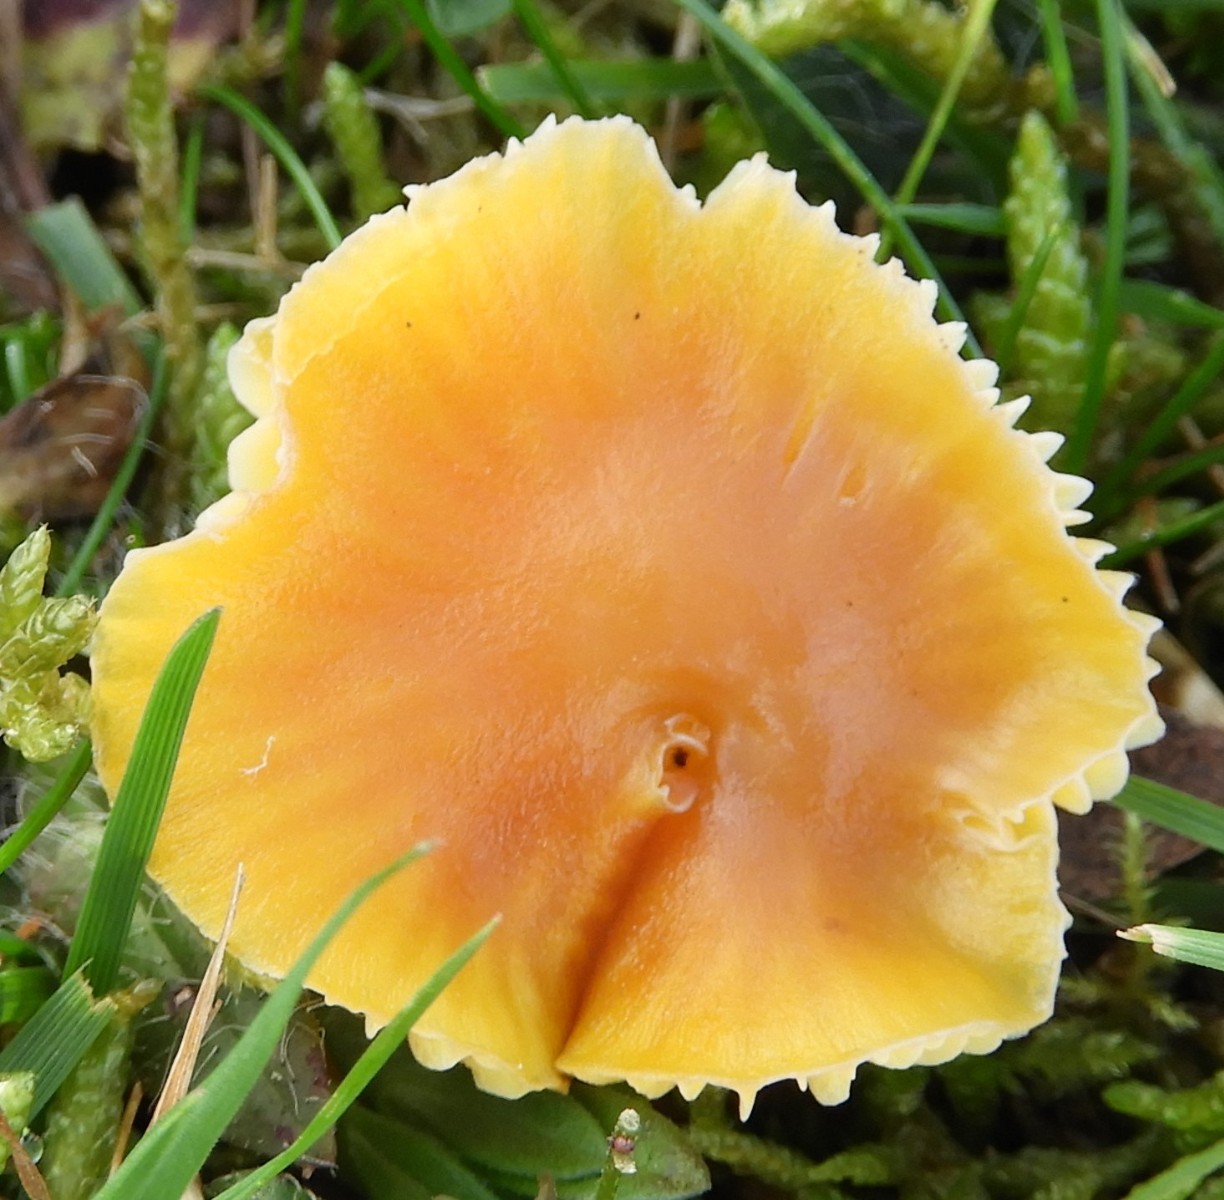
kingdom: Fungi
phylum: Basidiomycota
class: Agaricomycetes
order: Agaricales
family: Hygrophoraceae
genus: Hygrocybe
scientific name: Hygrocybe ceracea
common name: voksgul vokshat
